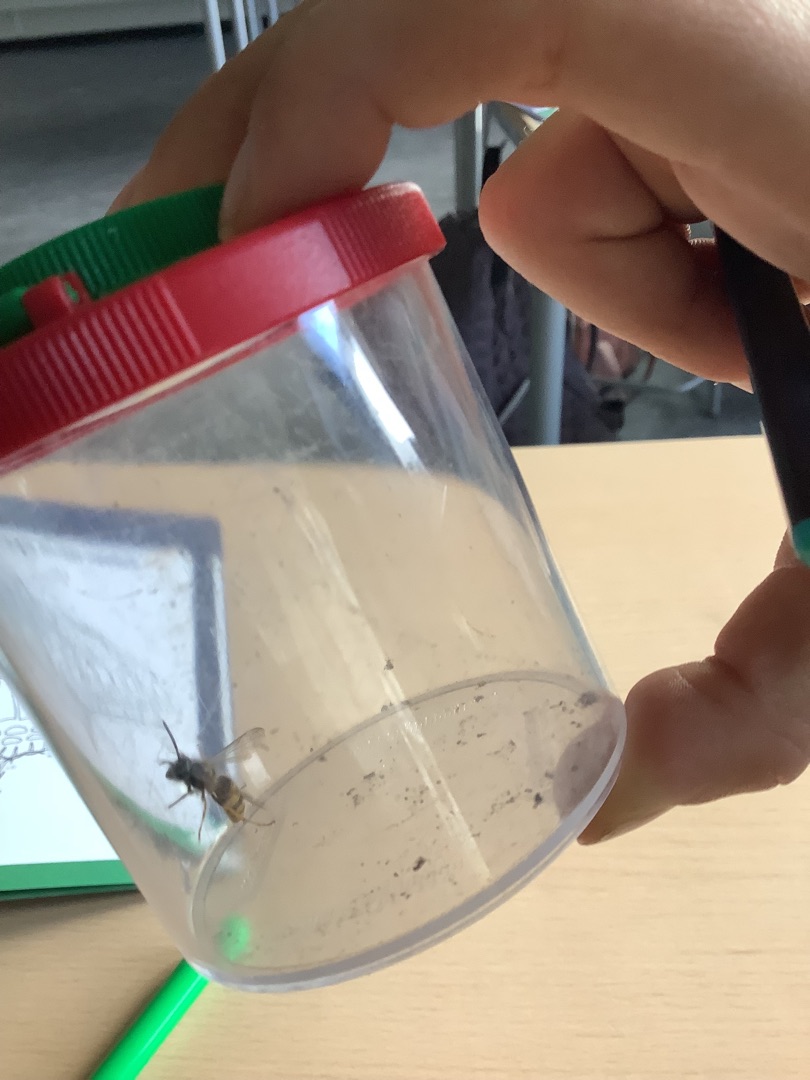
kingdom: Animalia
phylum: Arthropoda
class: Insecta
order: Hymenoptera
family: Vespidae
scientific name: Vespidae
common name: Gedehamse
